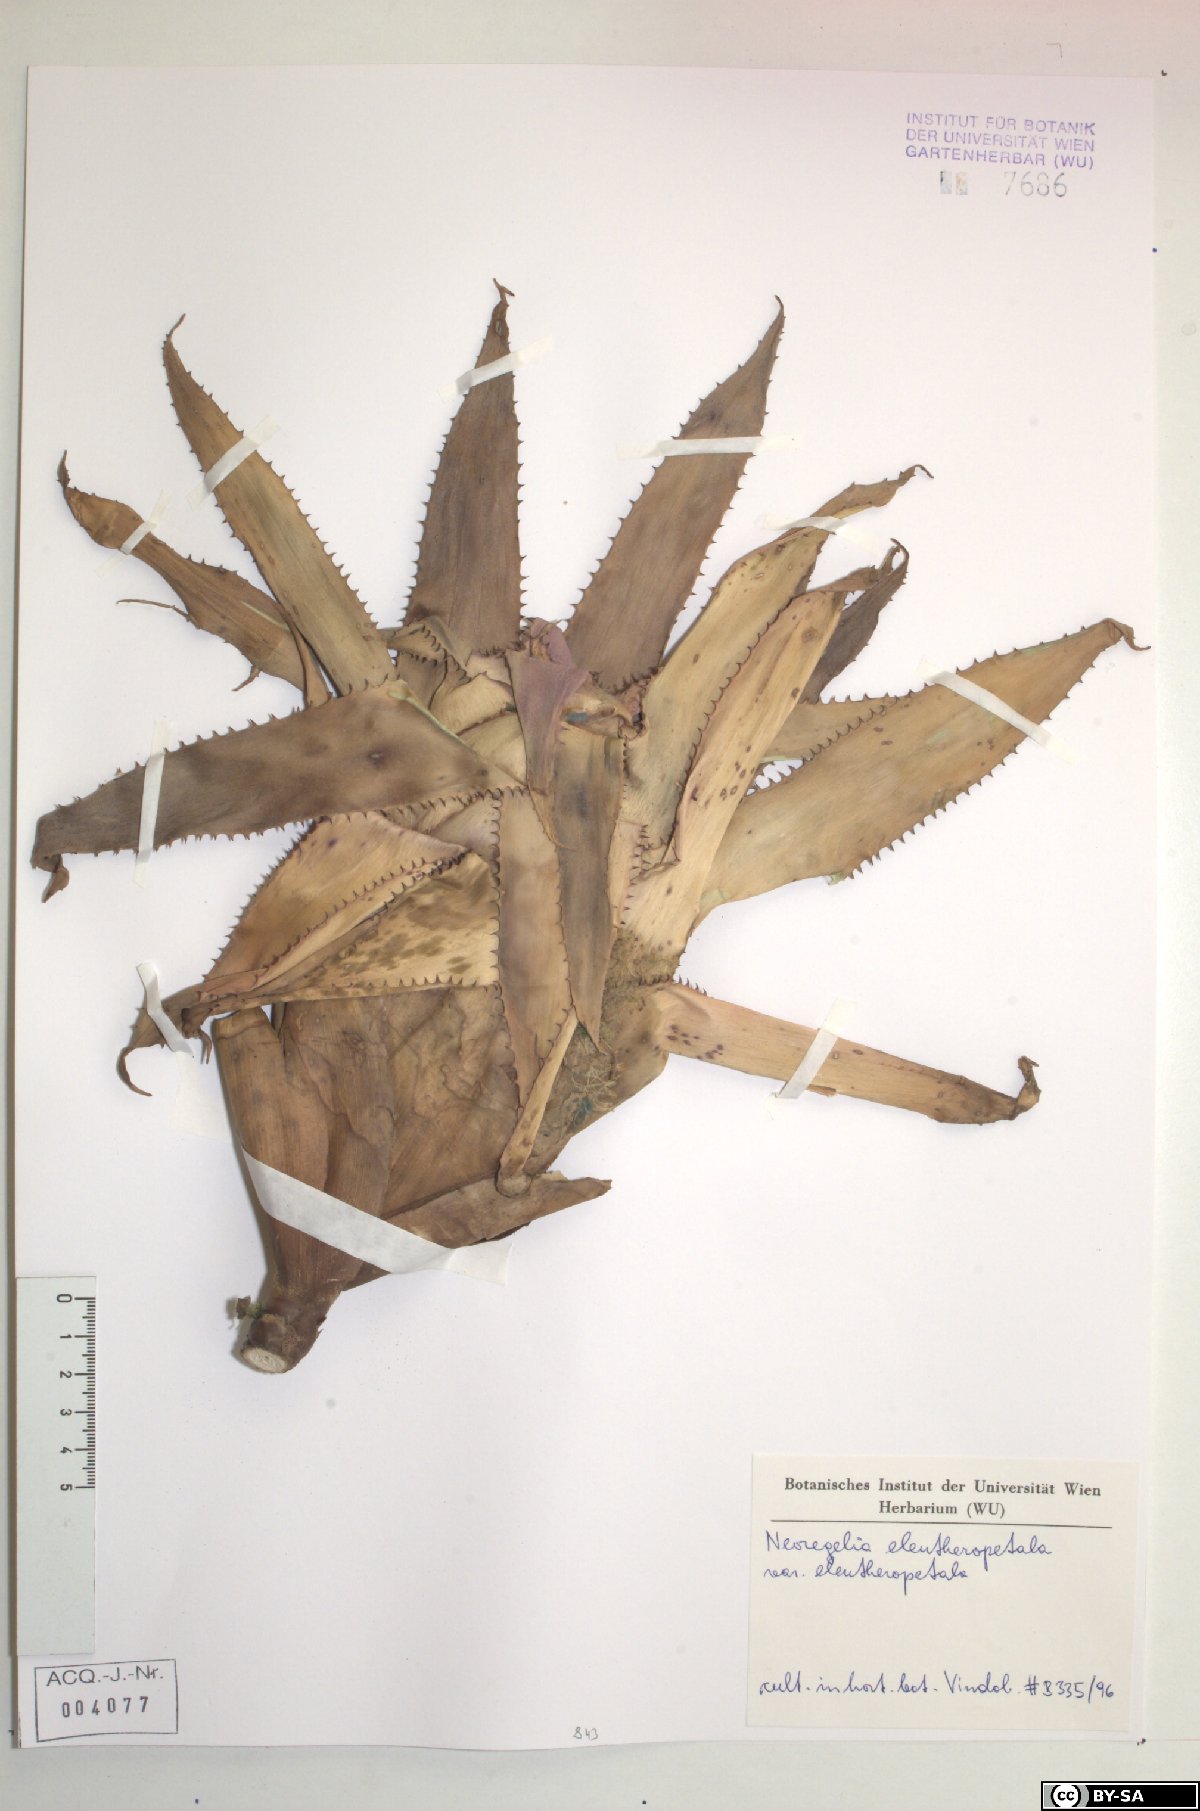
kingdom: Plantae
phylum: Tracheophyta
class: Liliopsida
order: Poales
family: Bromeliaceae
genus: Neoregelia
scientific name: Neoregelia
